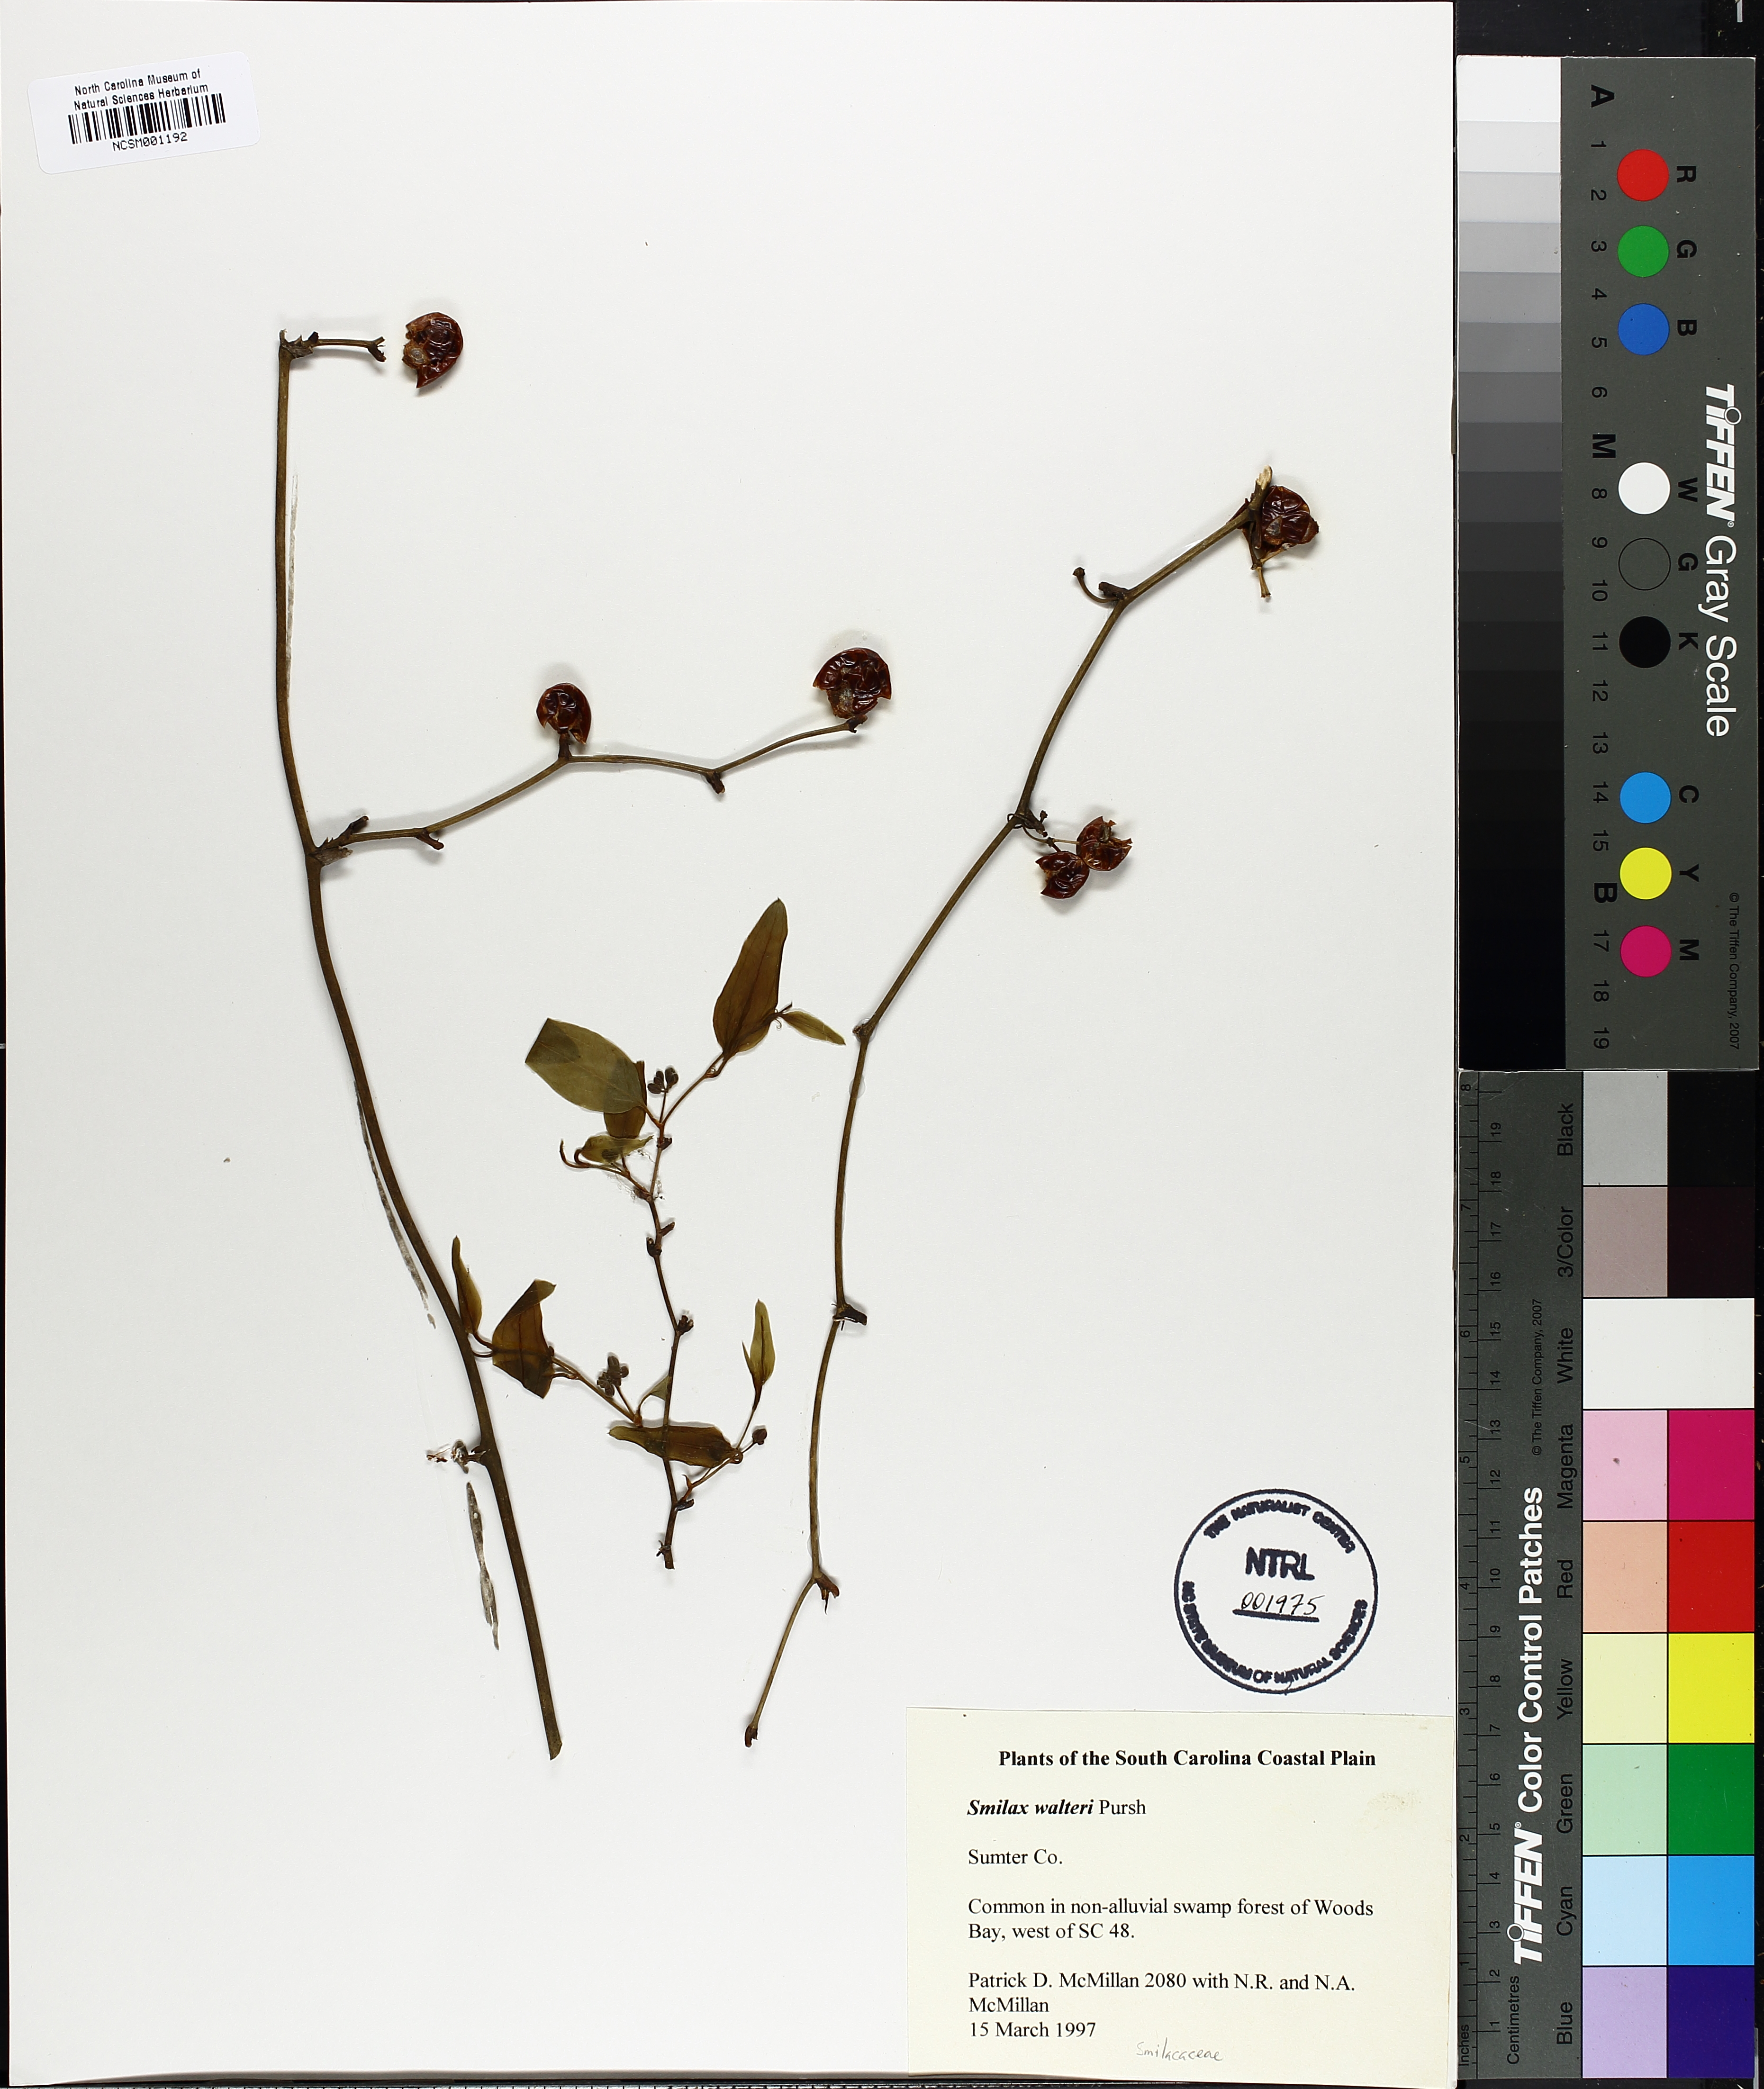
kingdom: Plantae
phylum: Tracheophyta
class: Liliopsida
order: Liliales
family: Smilacaceae
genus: Smilax
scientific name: Smilax walteri
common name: Coral greenbrier
